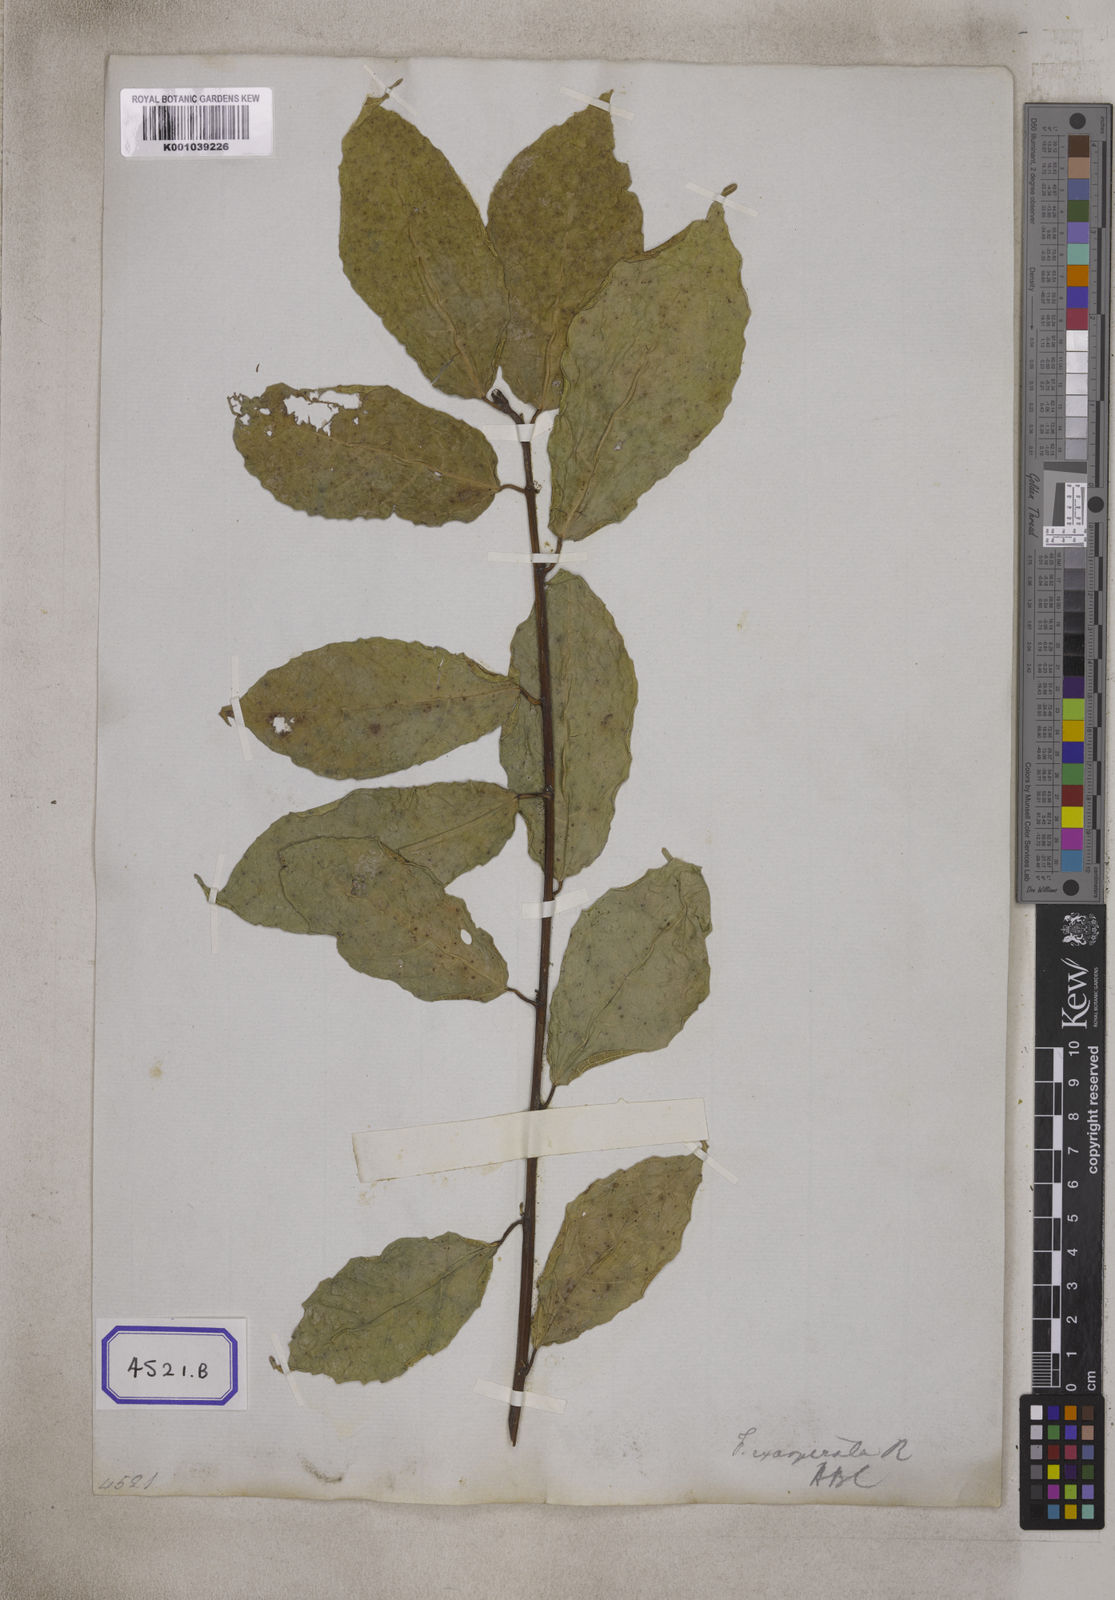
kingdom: Plantae
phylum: Tracheophyta
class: Magnoliopsida
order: Rosales
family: Moraceae
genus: Ficus
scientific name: Ficus ampelos
